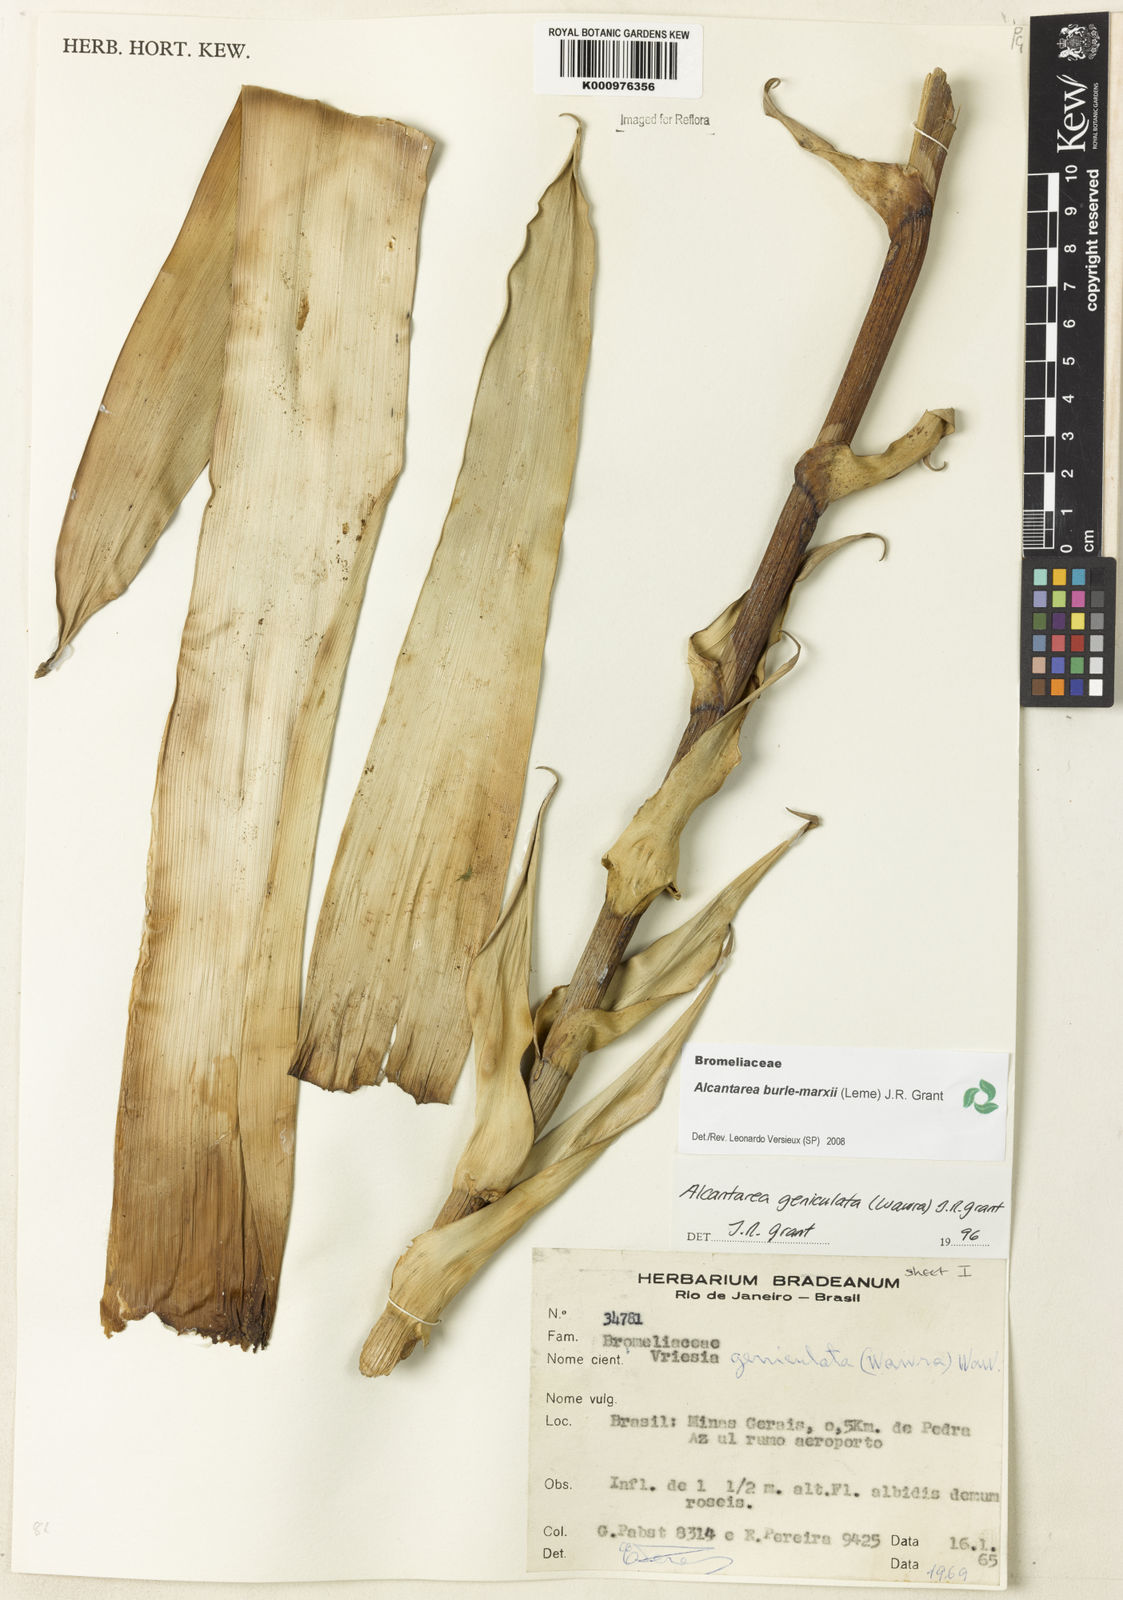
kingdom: Plantae
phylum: Tracheophyta
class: Liliopsida
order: Poales
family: Bromeliaceae
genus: Alcantarea
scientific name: Alcantarea burle-marxii
